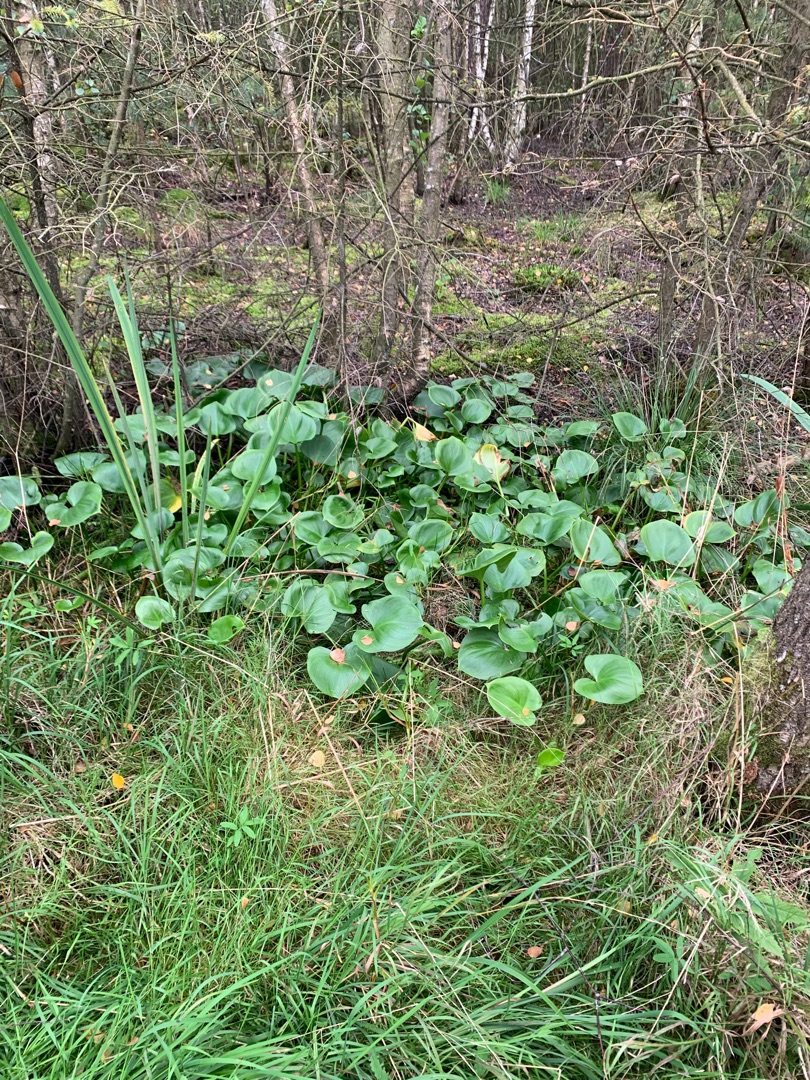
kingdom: Plantae
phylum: Tracheophyta
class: Liliopsida
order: Alismatales
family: Araceae
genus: Calla
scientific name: Calla palustris
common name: Kærmysse
